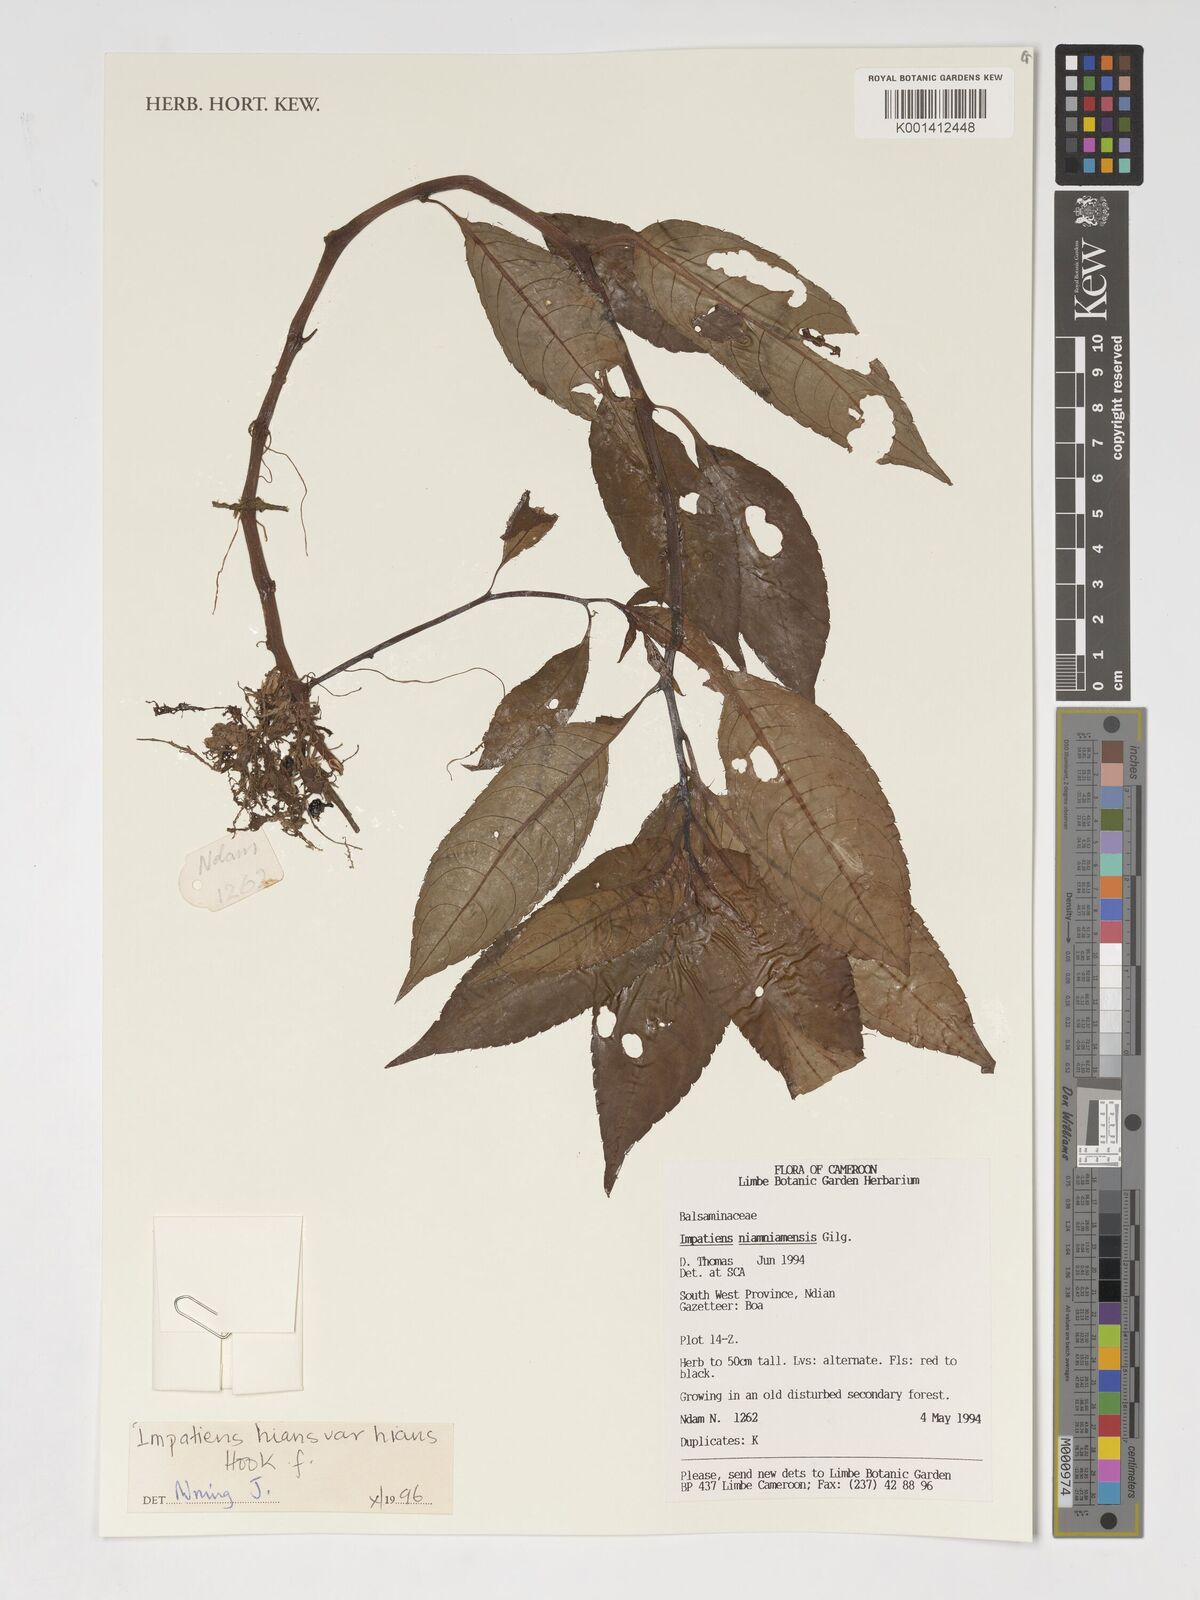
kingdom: Plantae
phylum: Tracheophyta
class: Magnoliopsida
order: Ericales
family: Balsaminaceae
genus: Impatiens
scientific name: Impatiens hians
